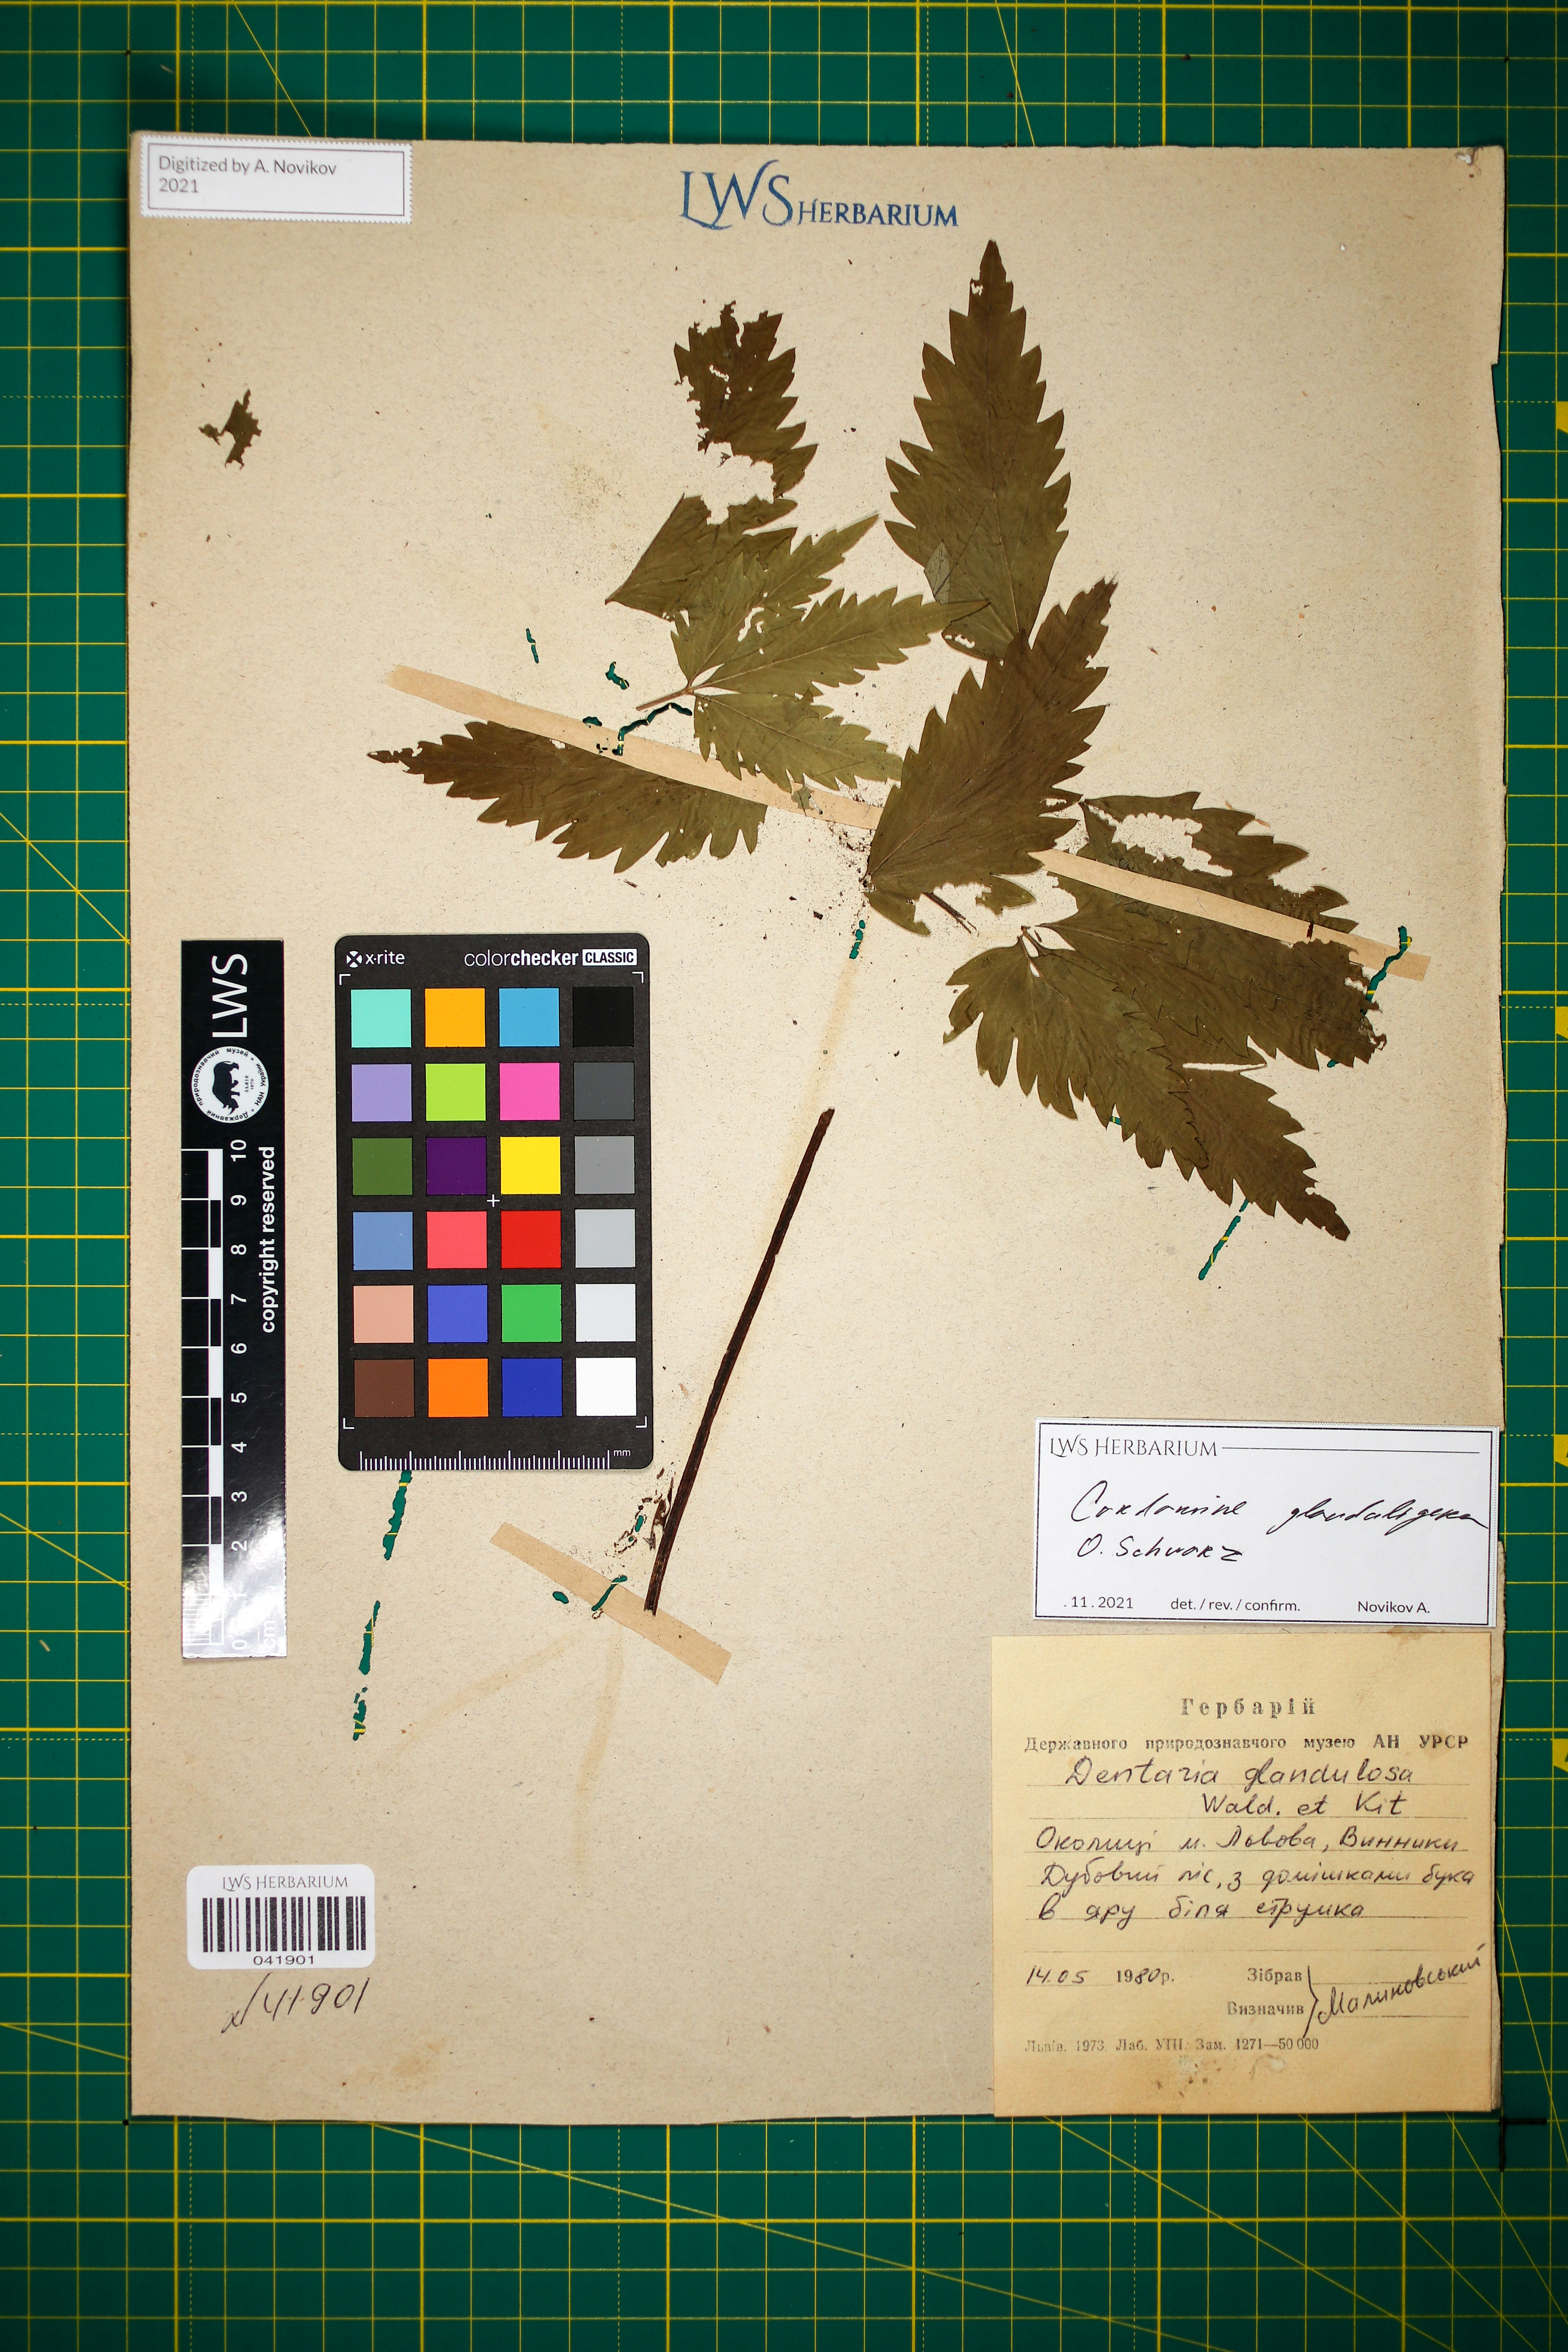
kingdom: Plantae
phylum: Tracheophyta
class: Magnoliopsida
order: Brassicales
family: Brassicaceae
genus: Cardamine
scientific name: Cardamine glanduligera
